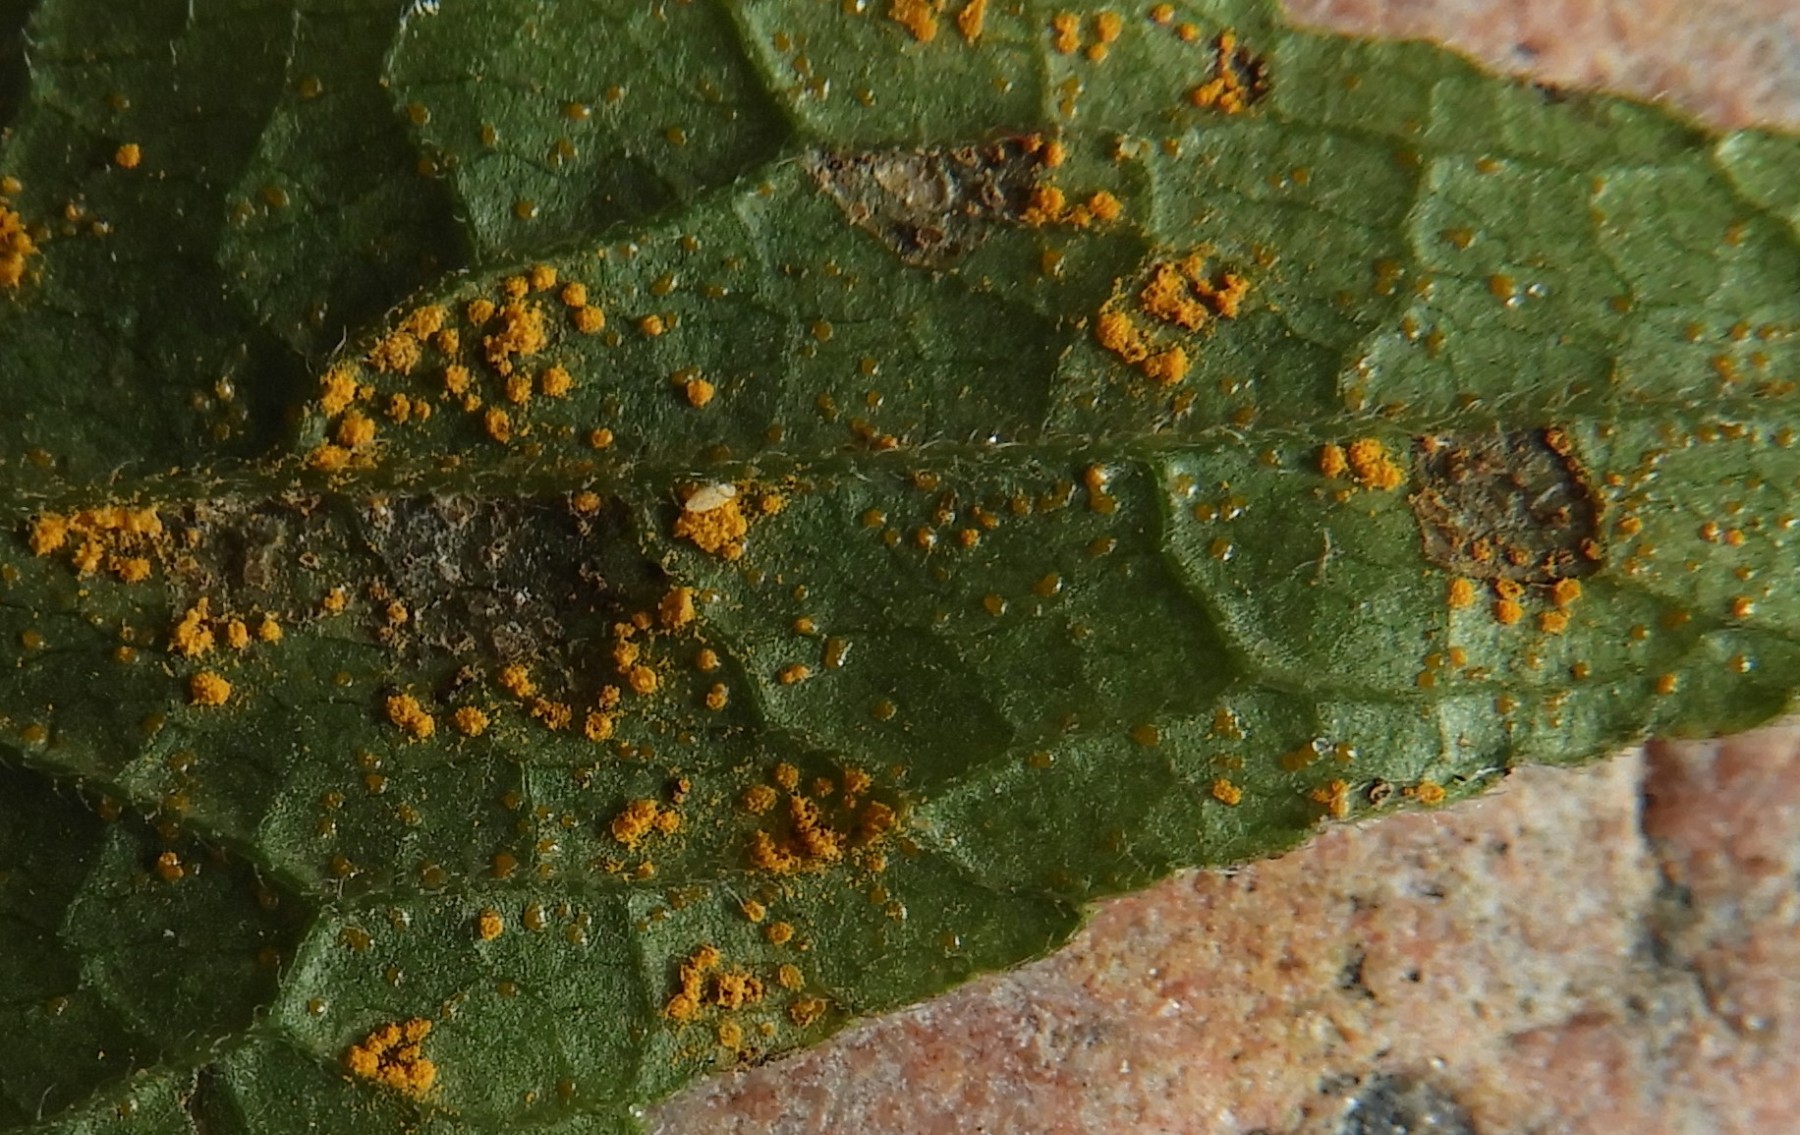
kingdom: Fungi
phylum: Basidiomycota
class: Pucciniomycetes
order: Pucciniales
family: Coleosporiaceae
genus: Coleosporium
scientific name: Coleosporium campanulae
